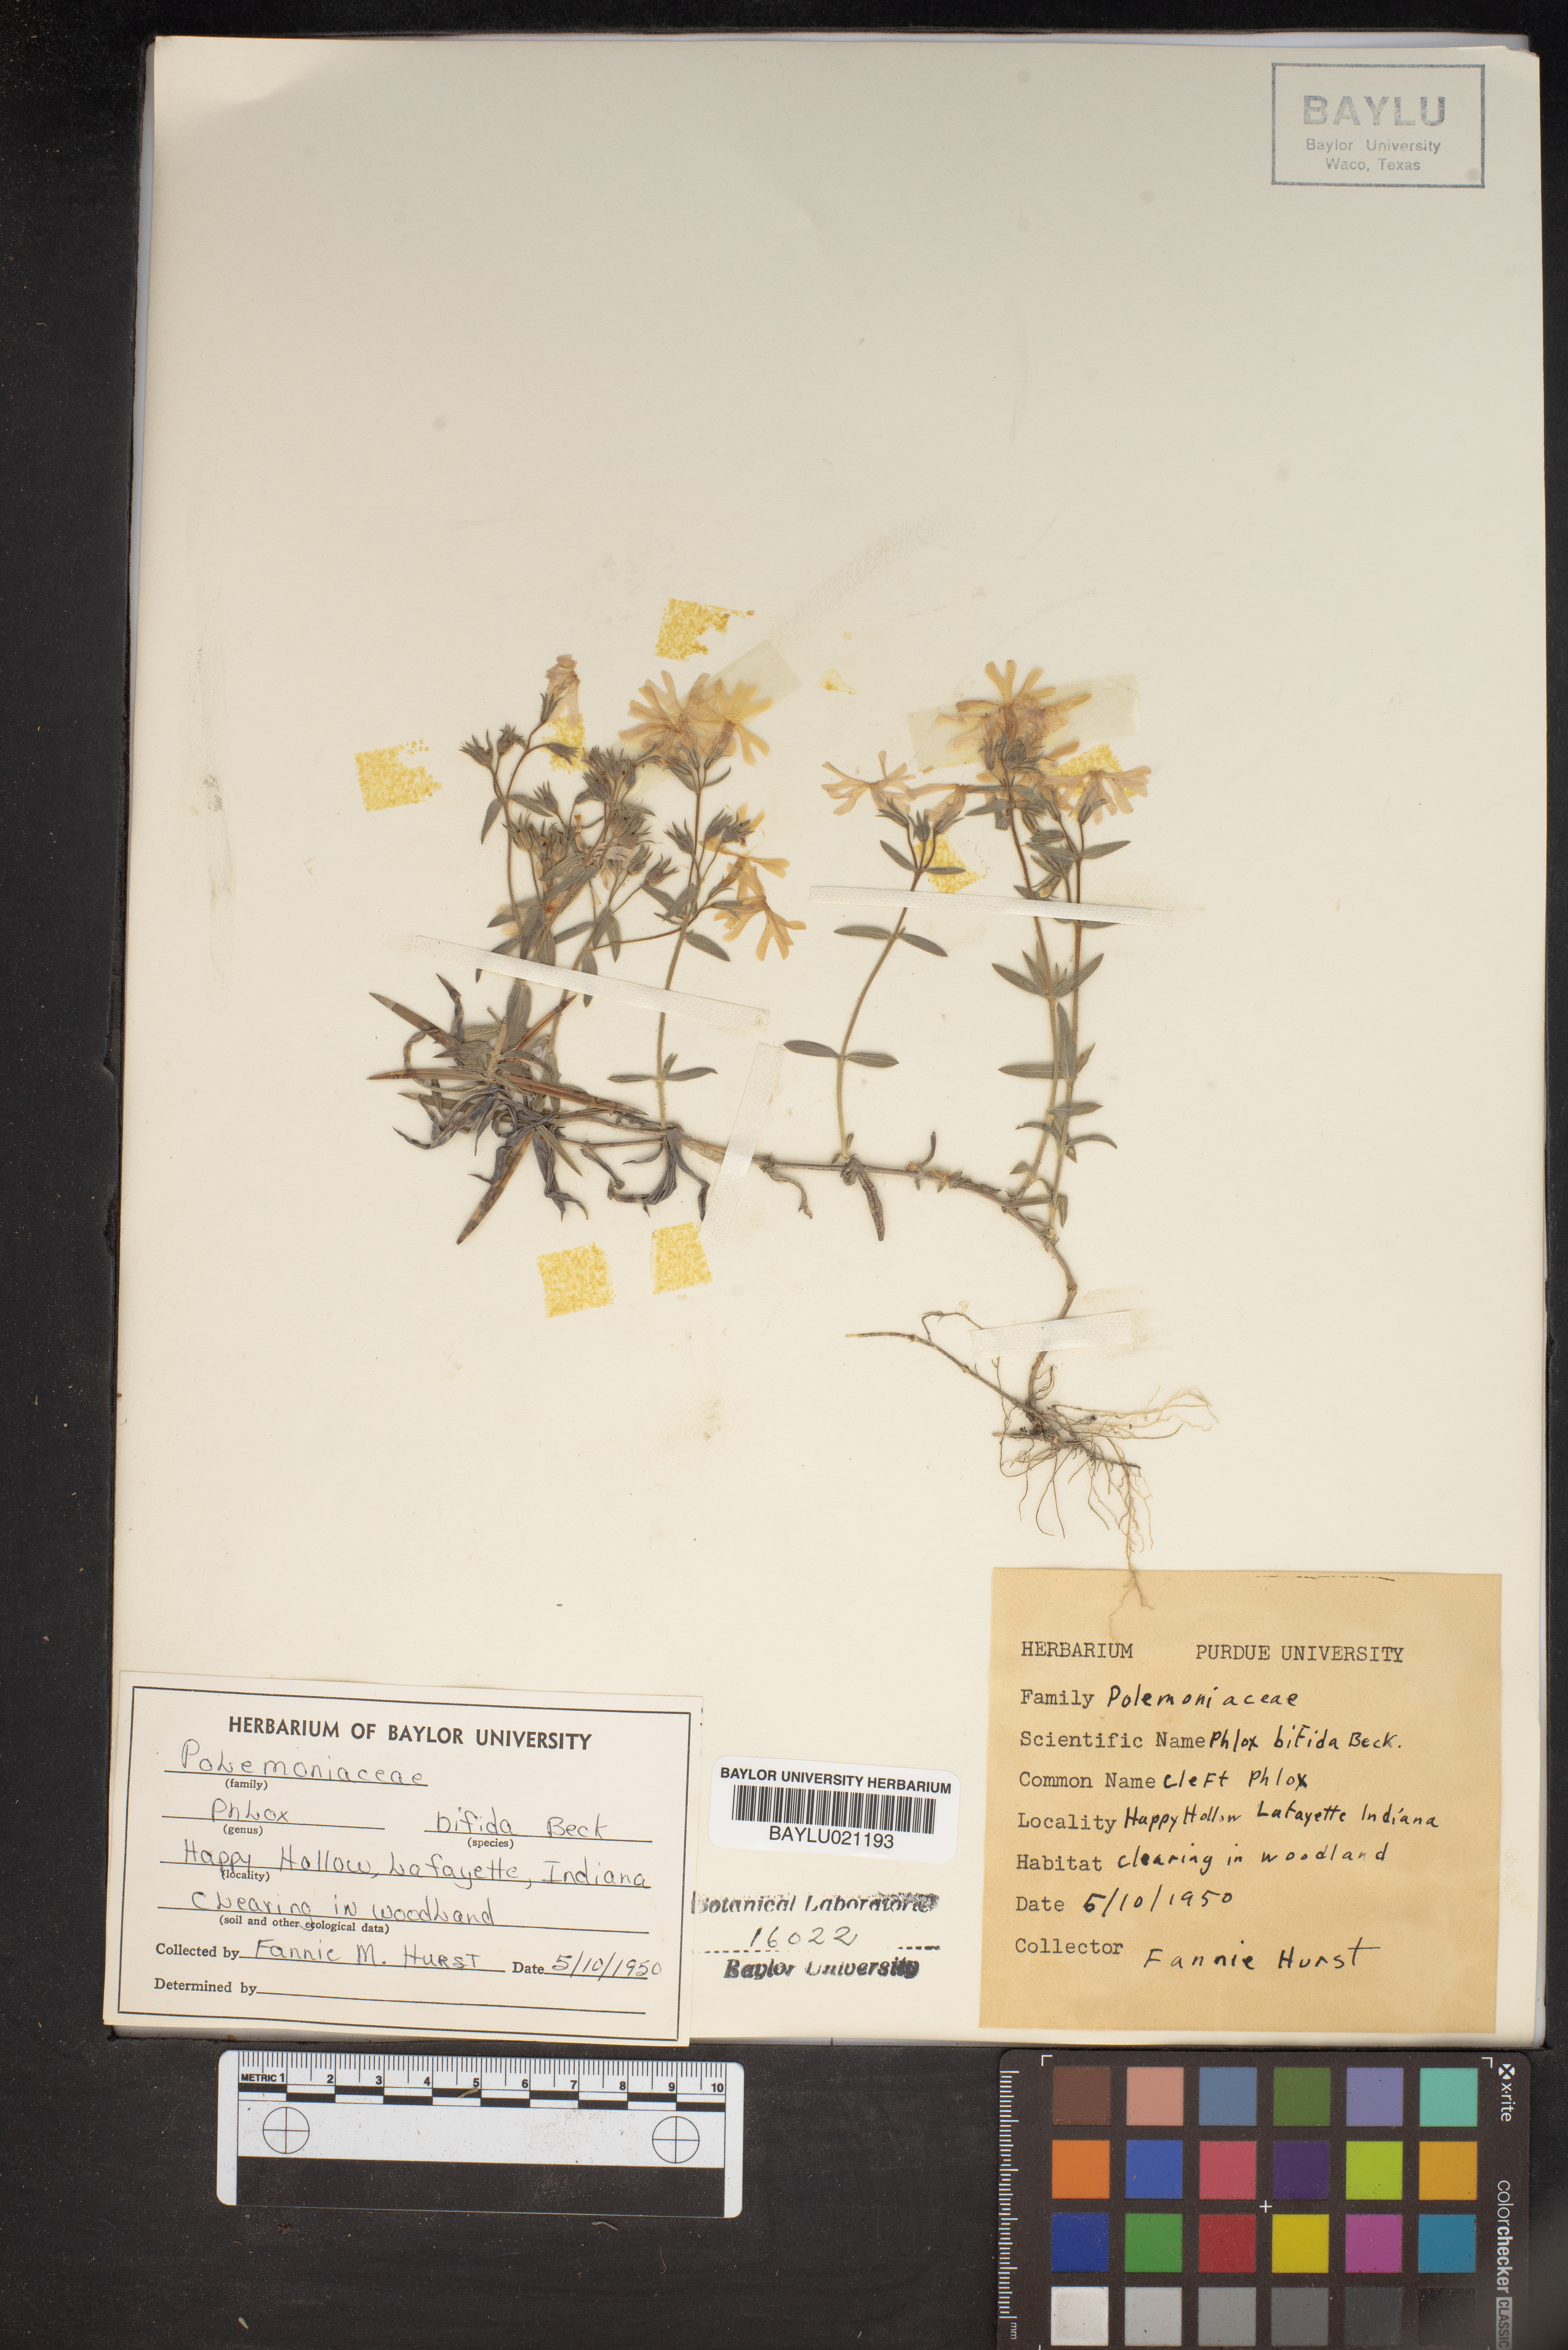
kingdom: Plantae
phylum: Tracheophyta
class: Magnoliopsida
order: Ericales
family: Polemoniaceae
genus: Phlox
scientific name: Phlox bifida
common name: Sand phlox
